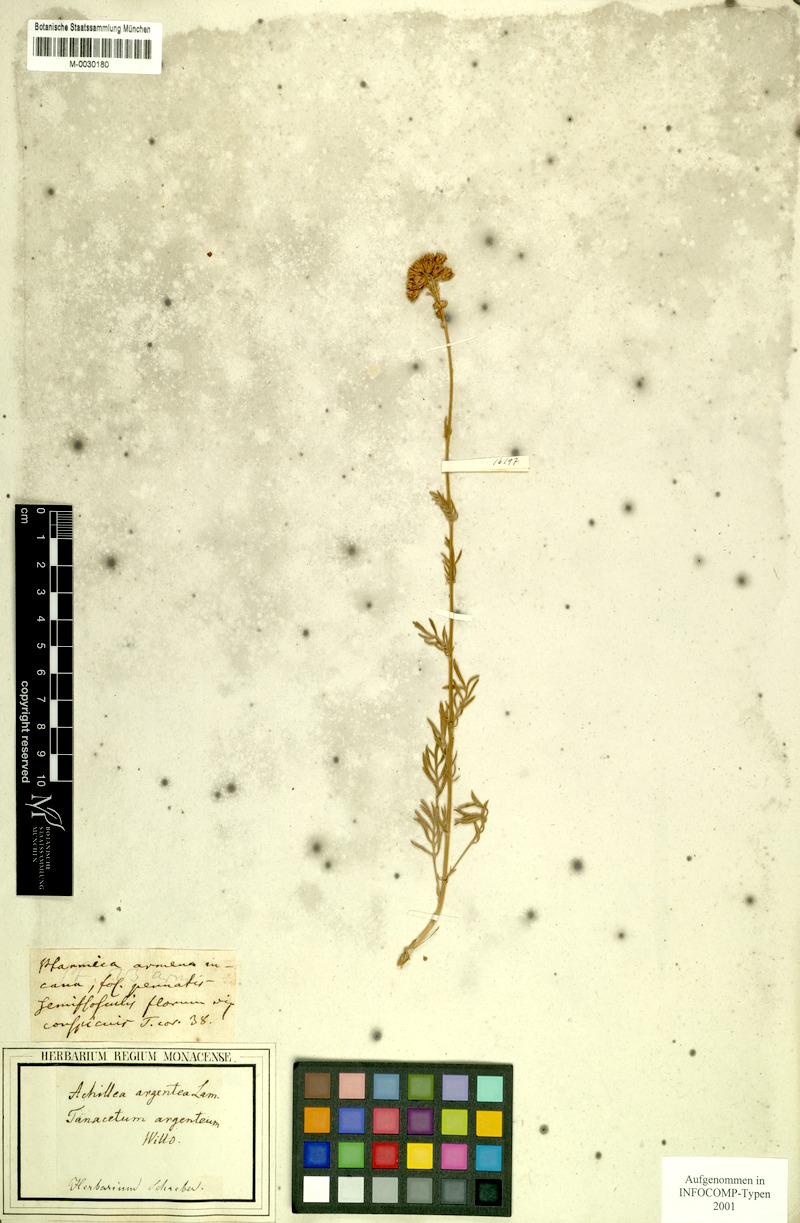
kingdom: Plantae
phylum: Tracheophyta
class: Magnoliopsida
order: Asterales
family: Asteraceae
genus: Pectis
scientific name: Pectis peruviana
